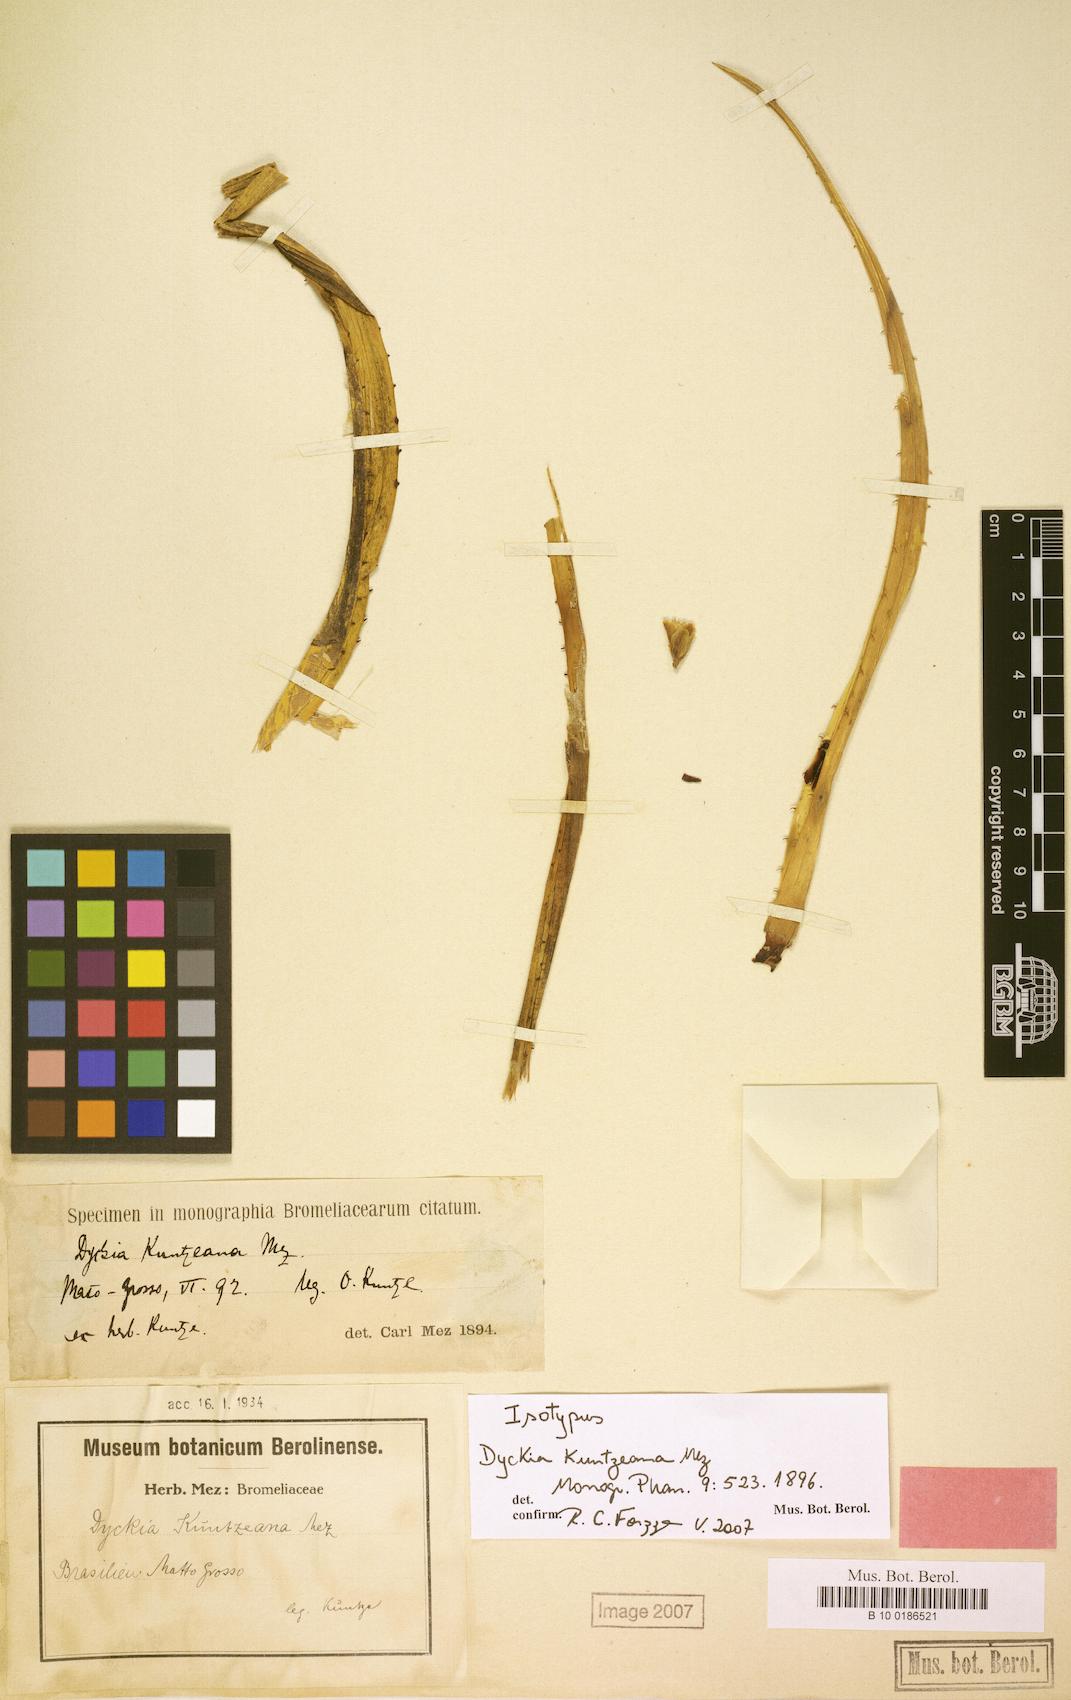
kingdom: Plantae
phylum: Tracheophyta
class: Liliopsida
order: Poales
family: Bromeliaceae
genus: Dyckia
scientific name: Dyckia tenuis
